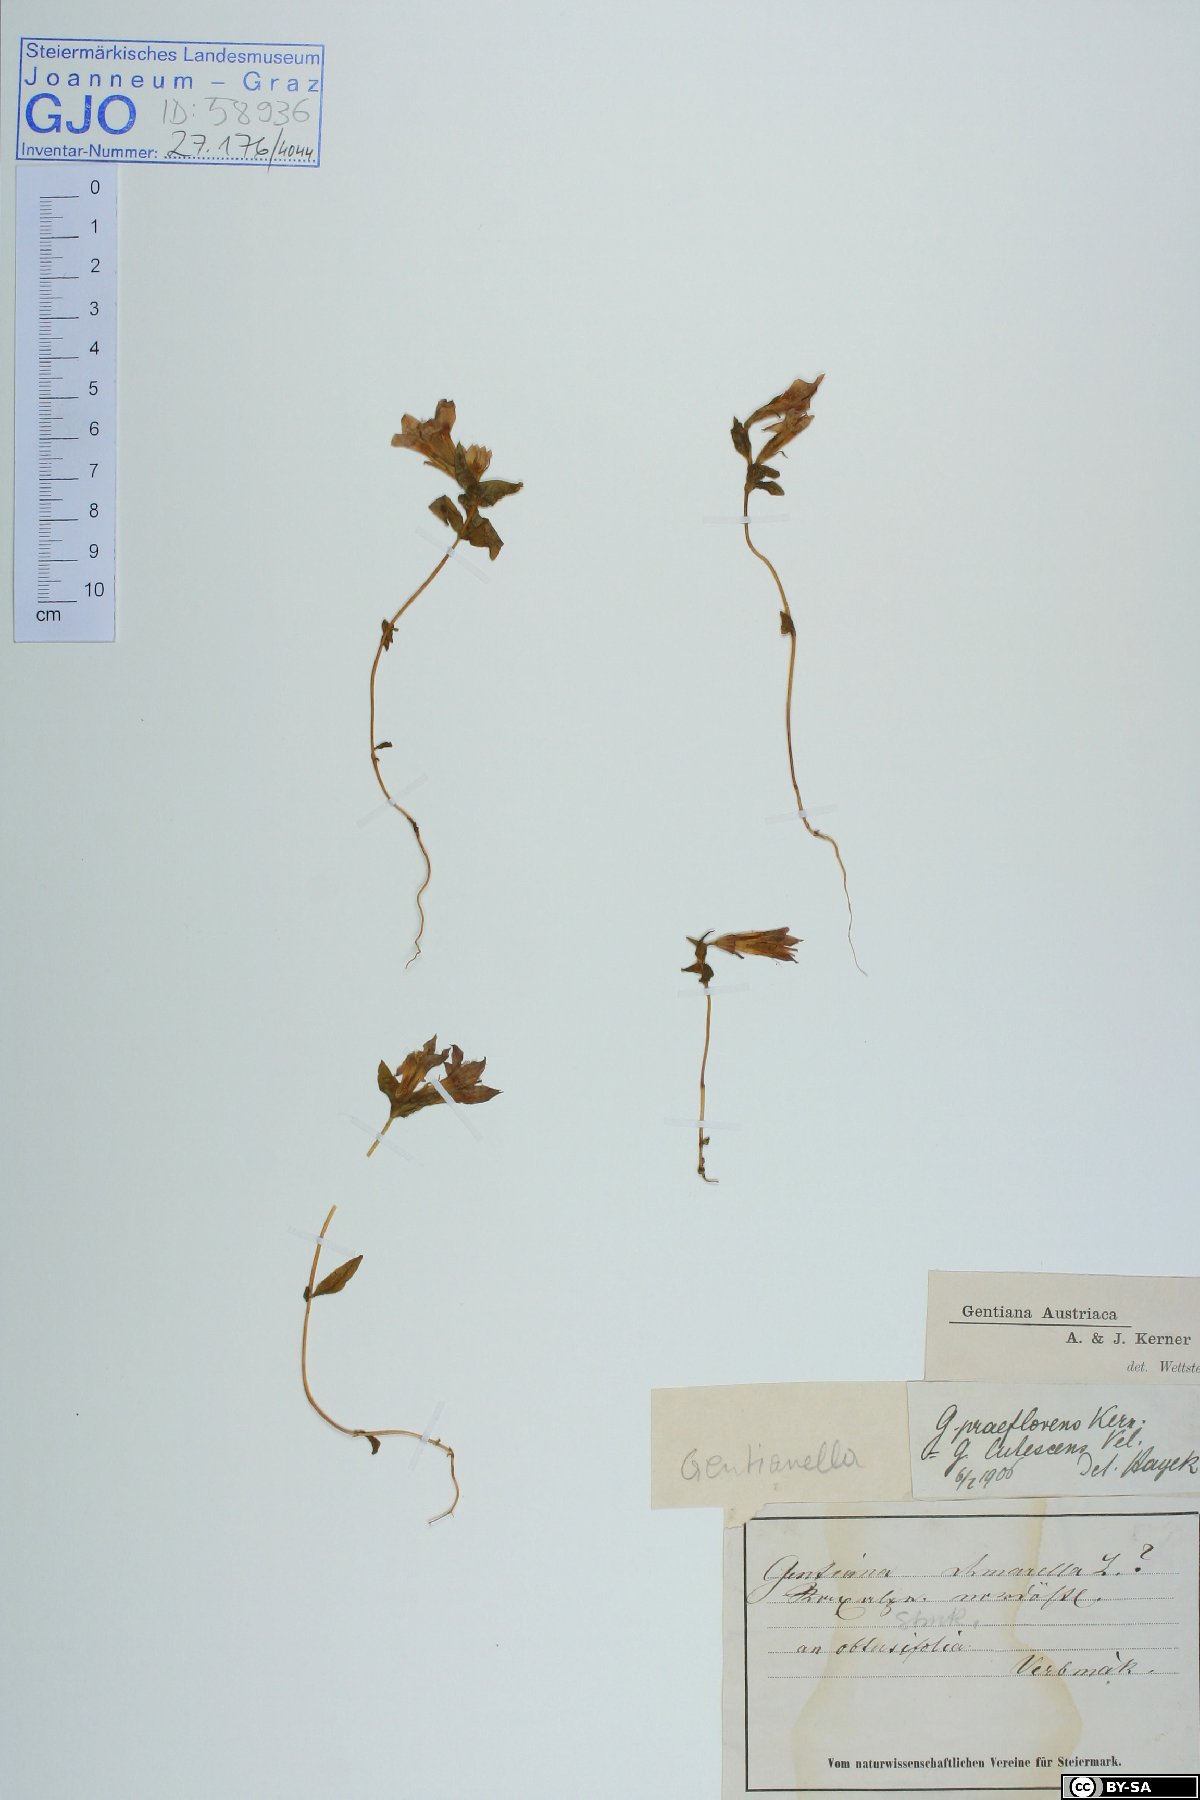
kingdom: Plantae
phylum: Tracheophyta
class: Magnoliopsida
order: Gentianales
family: Gentianaceae
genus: Gentianella
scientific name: Gentianella austriaca
